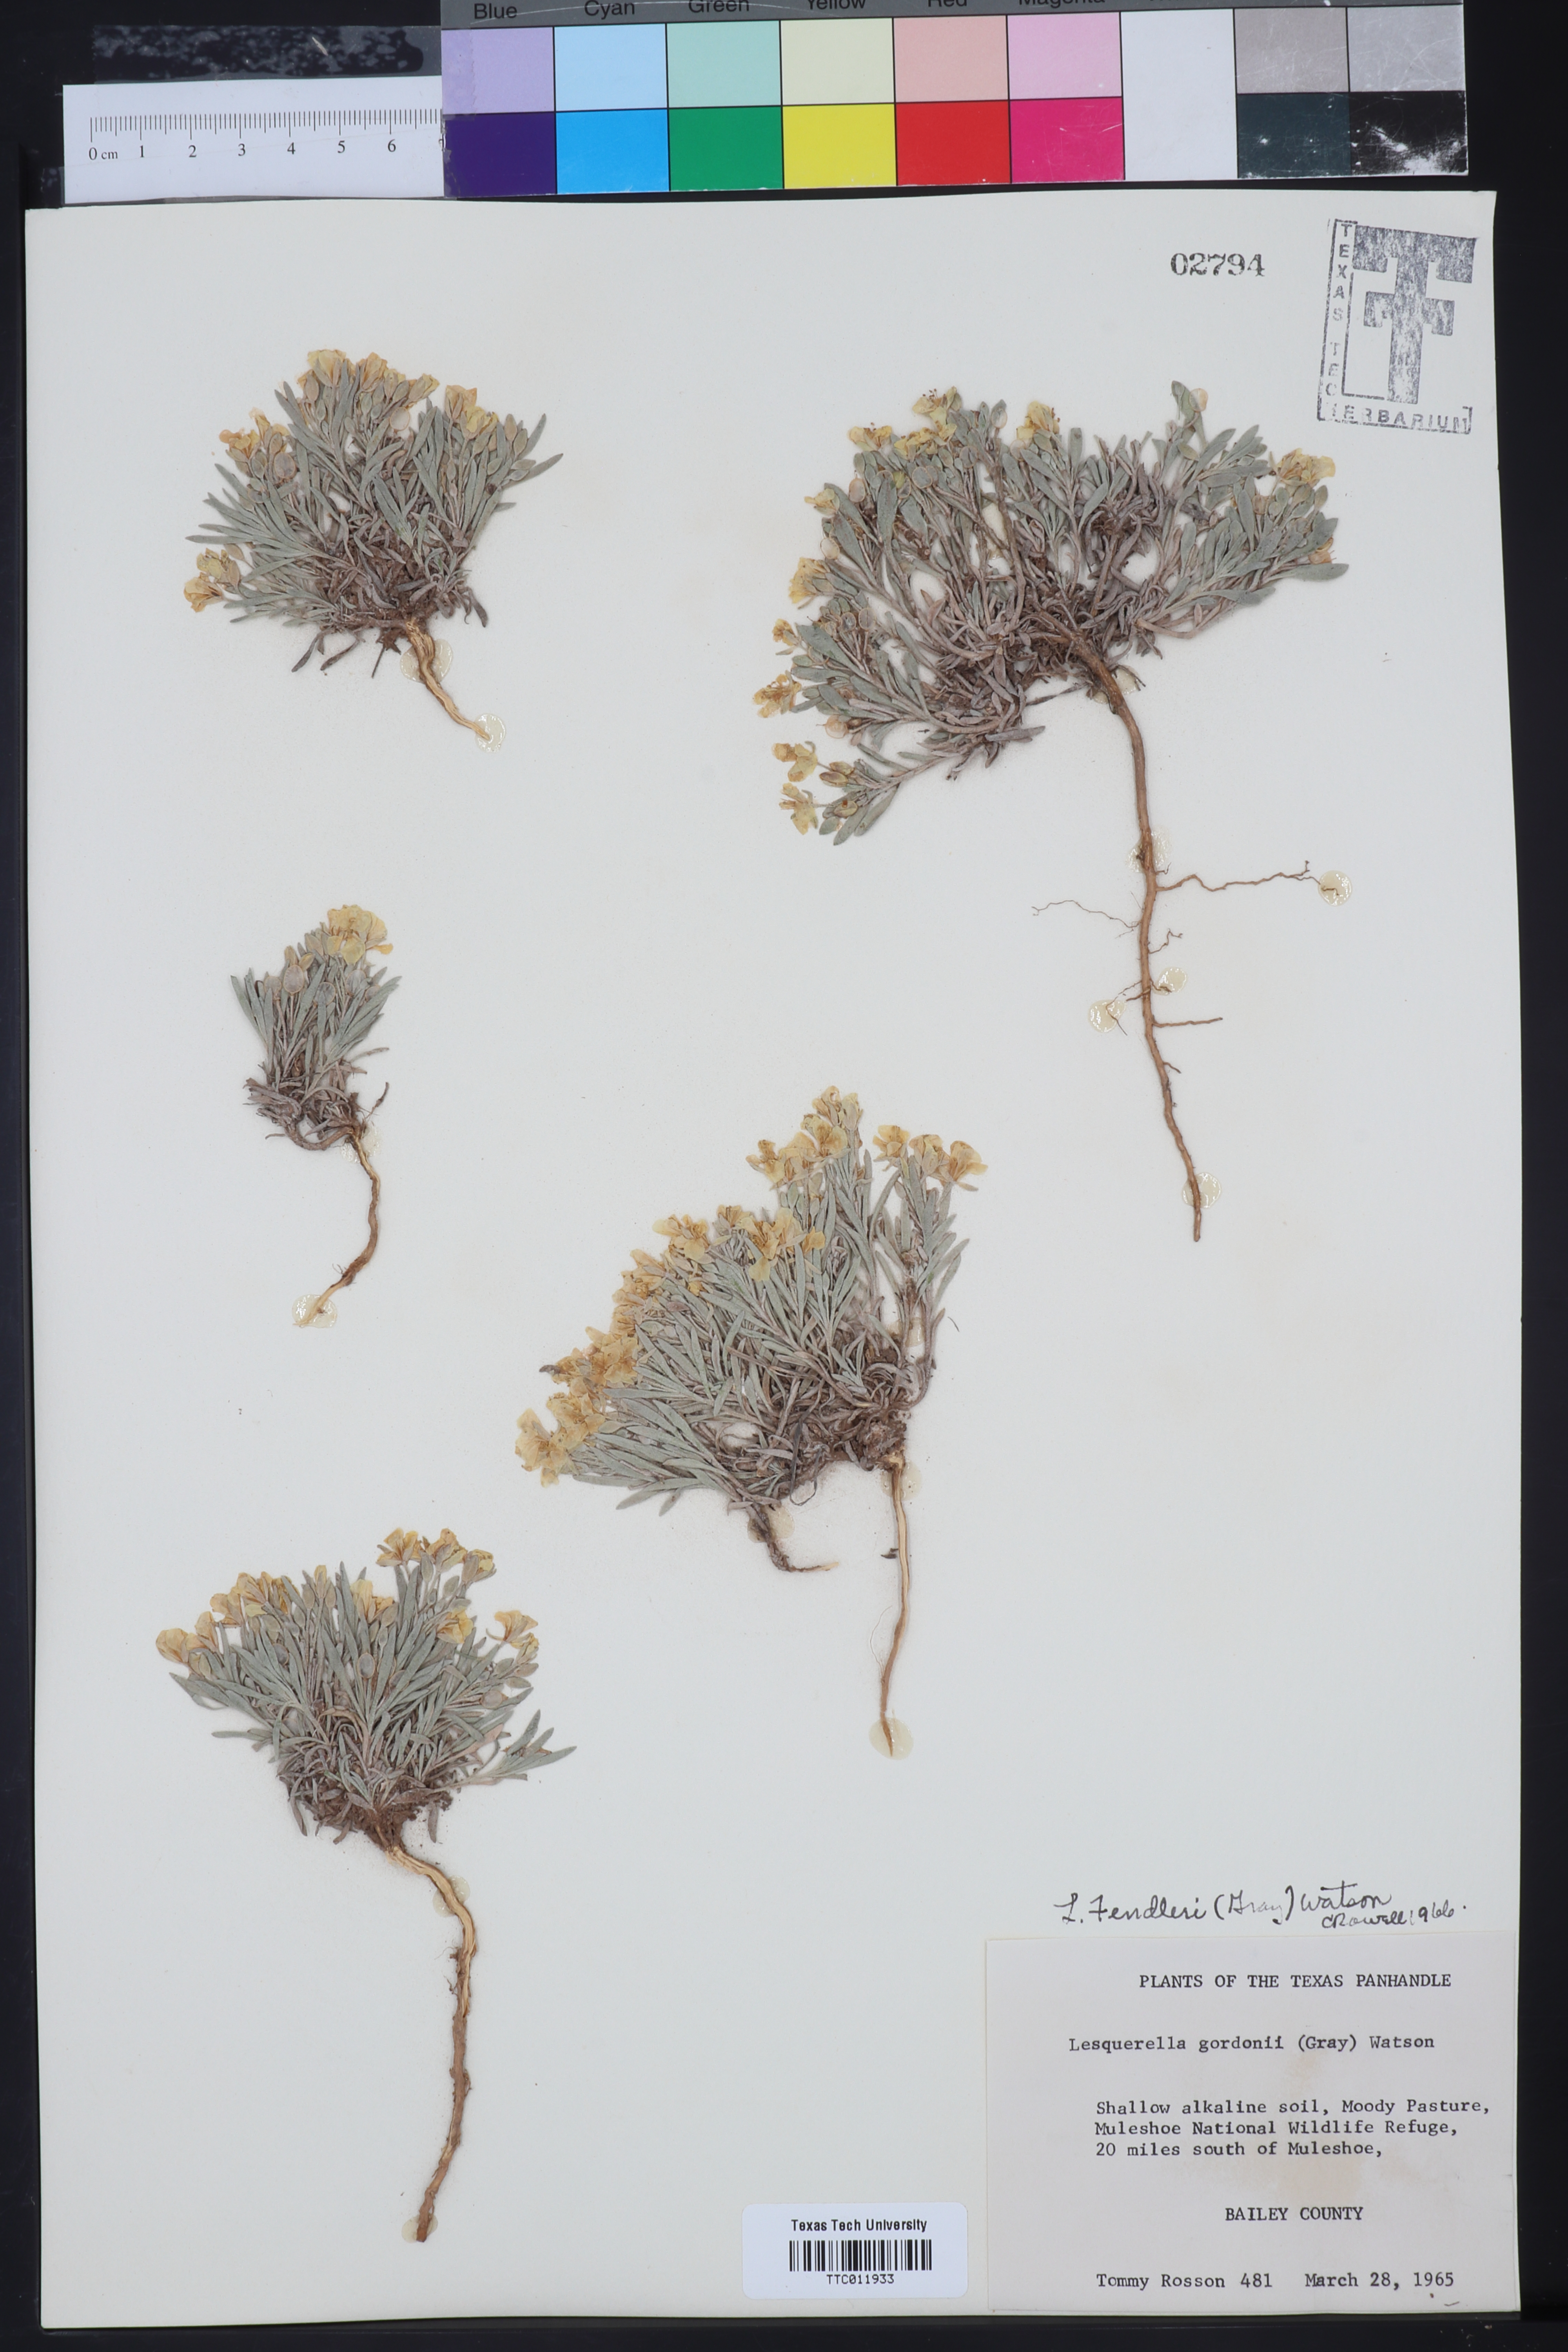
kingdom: Plantae
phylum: Tracheophyta
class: Magnoliopsida
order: Brassicales
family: Brassicaceae
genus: Physaria
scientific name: Physaria fendleri
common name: Fendler's bladderpod
